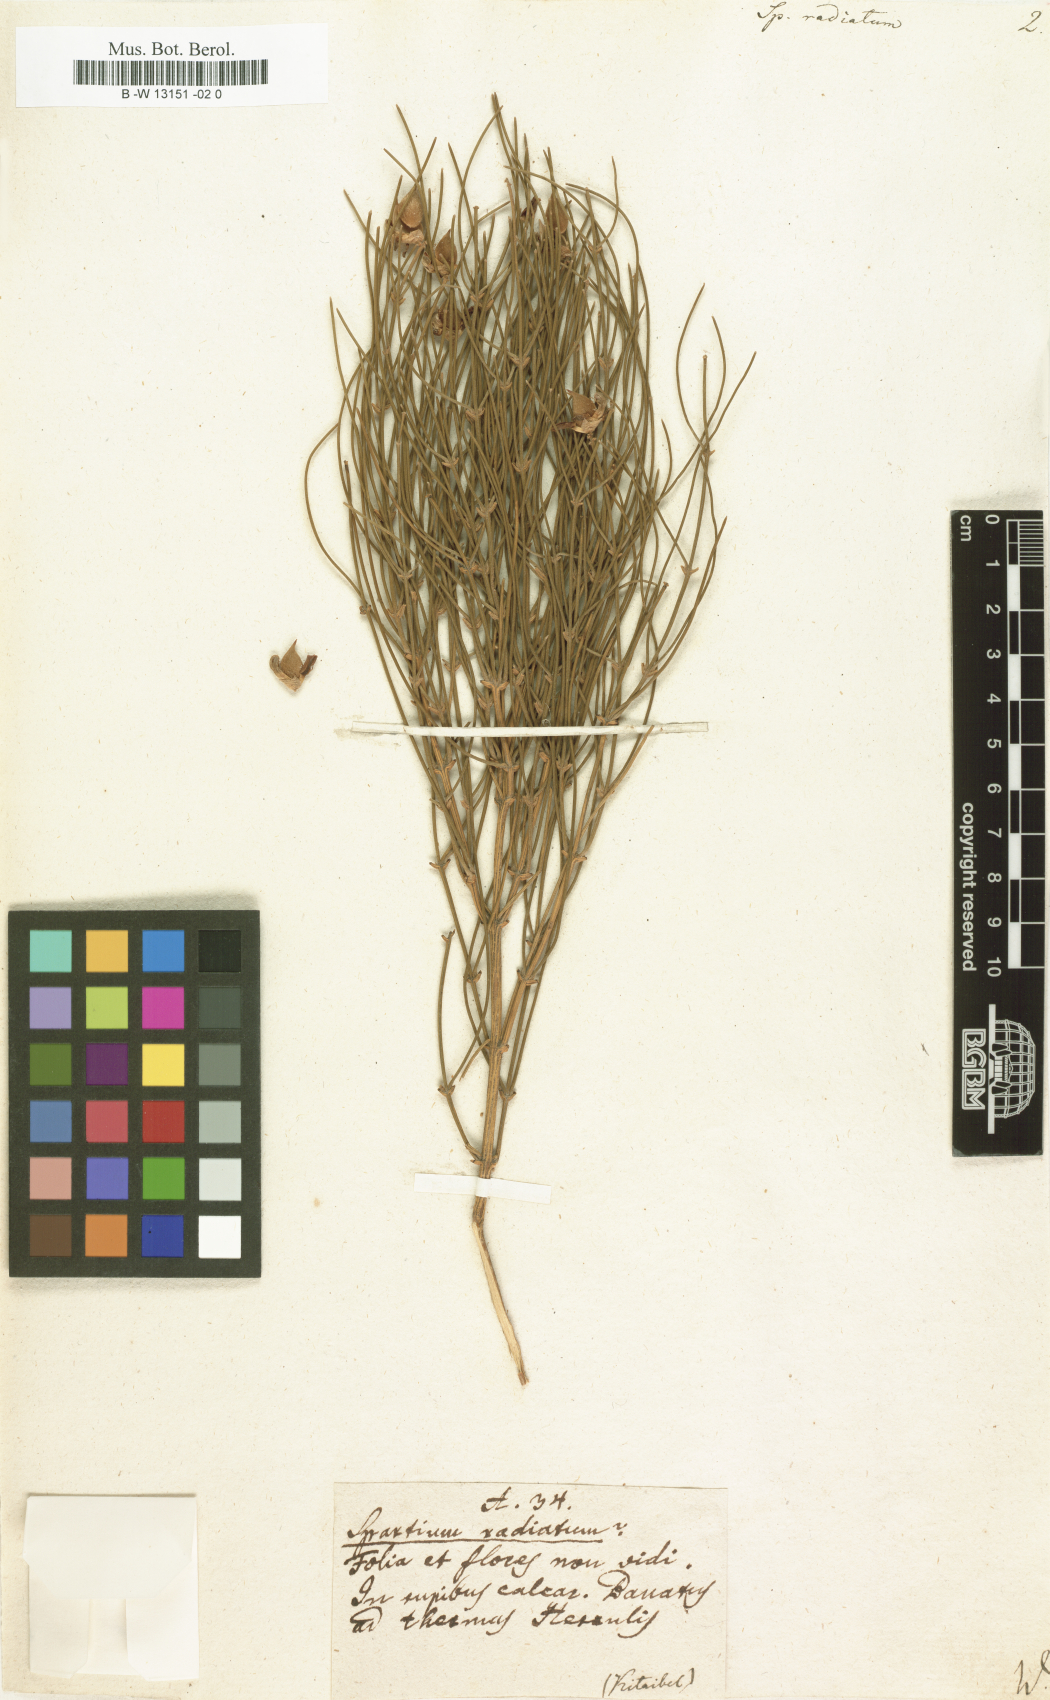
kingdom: Plantae
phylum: Tracheophyta
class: Magnoliopsida
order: Fabales
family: Fabaceae
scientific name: Fabaceae
